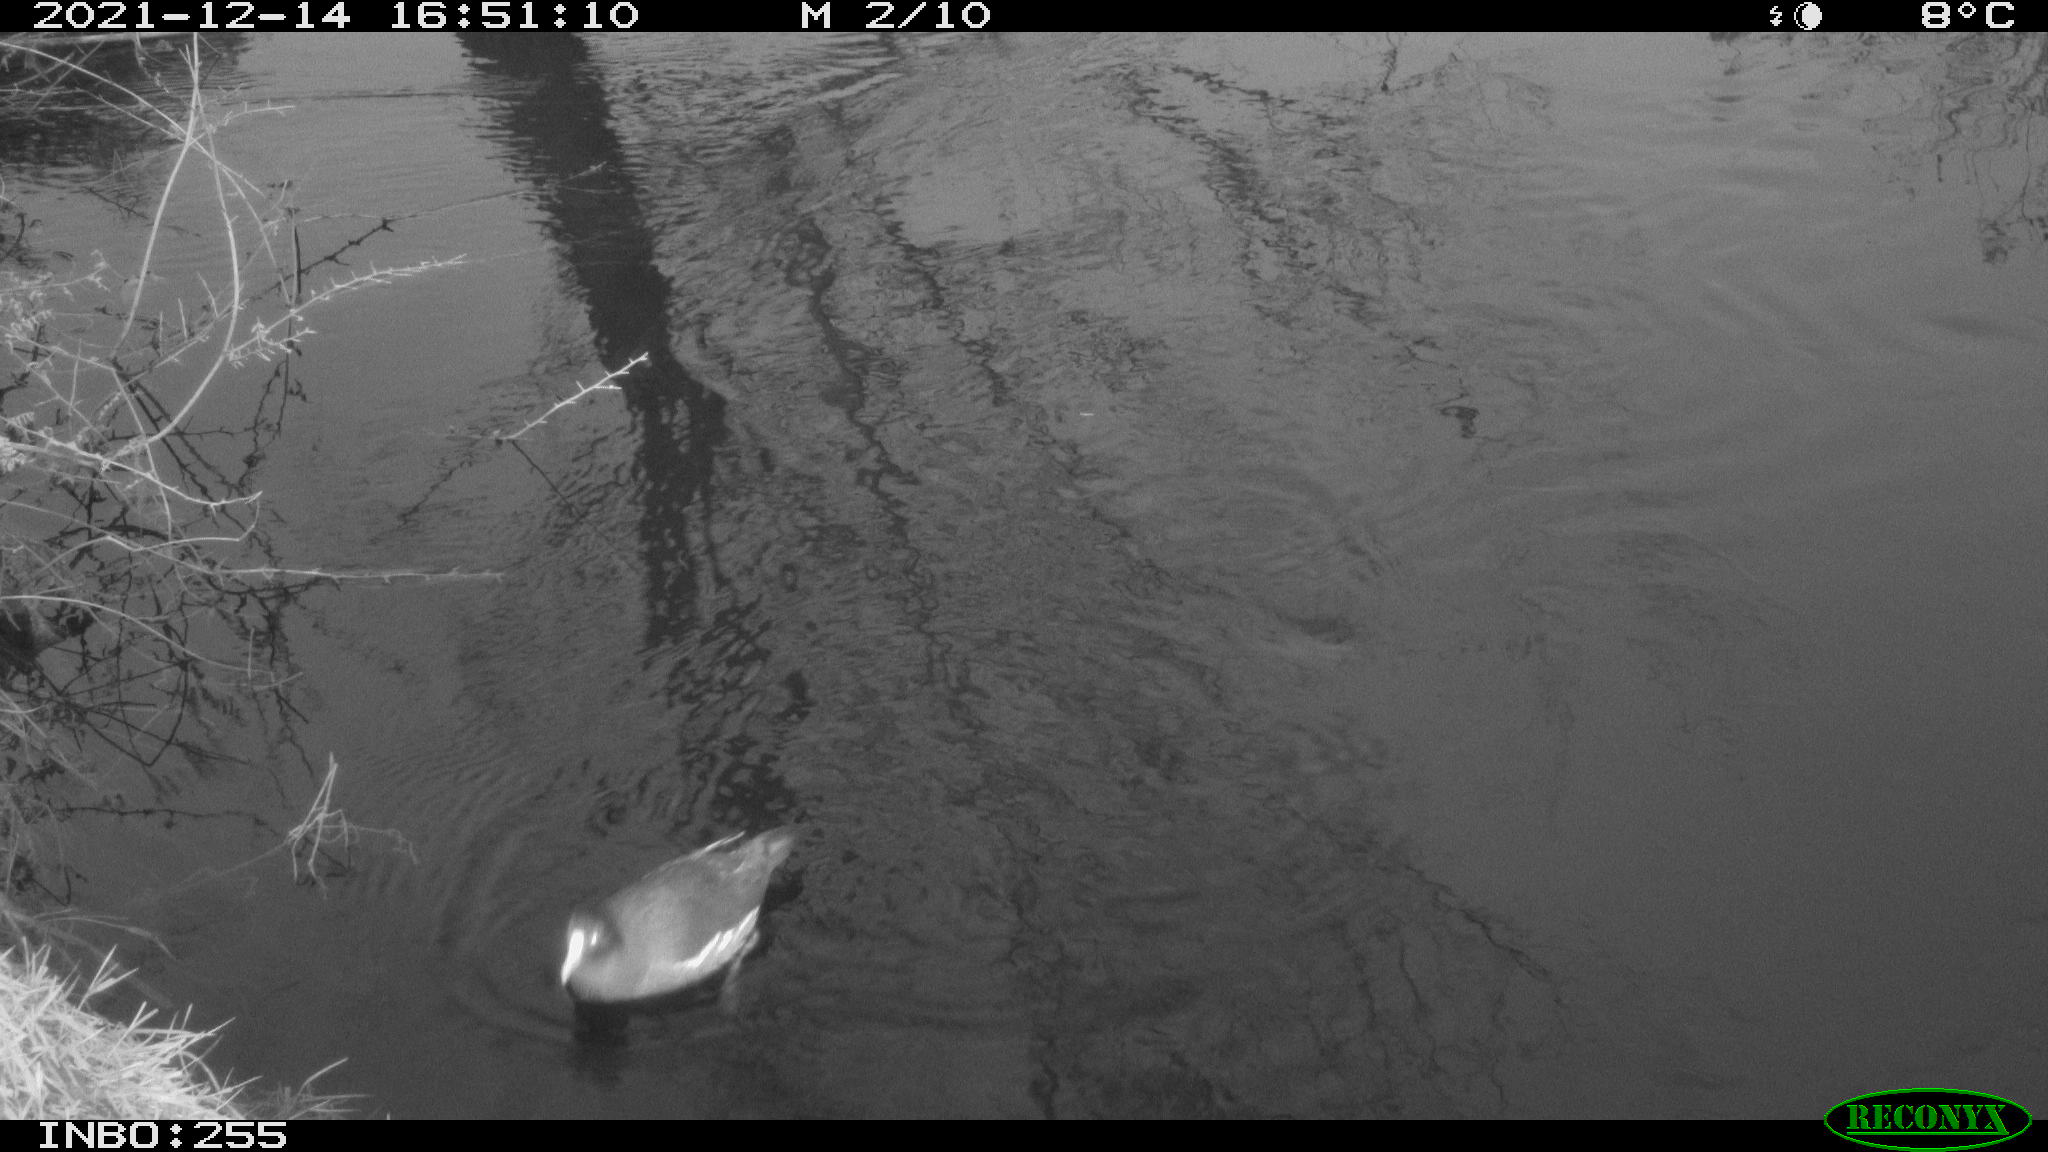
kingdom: Animalia
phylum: Chordata
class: Aves
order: Anseriformes
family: Anatidae
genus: Anas
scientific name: Anas
